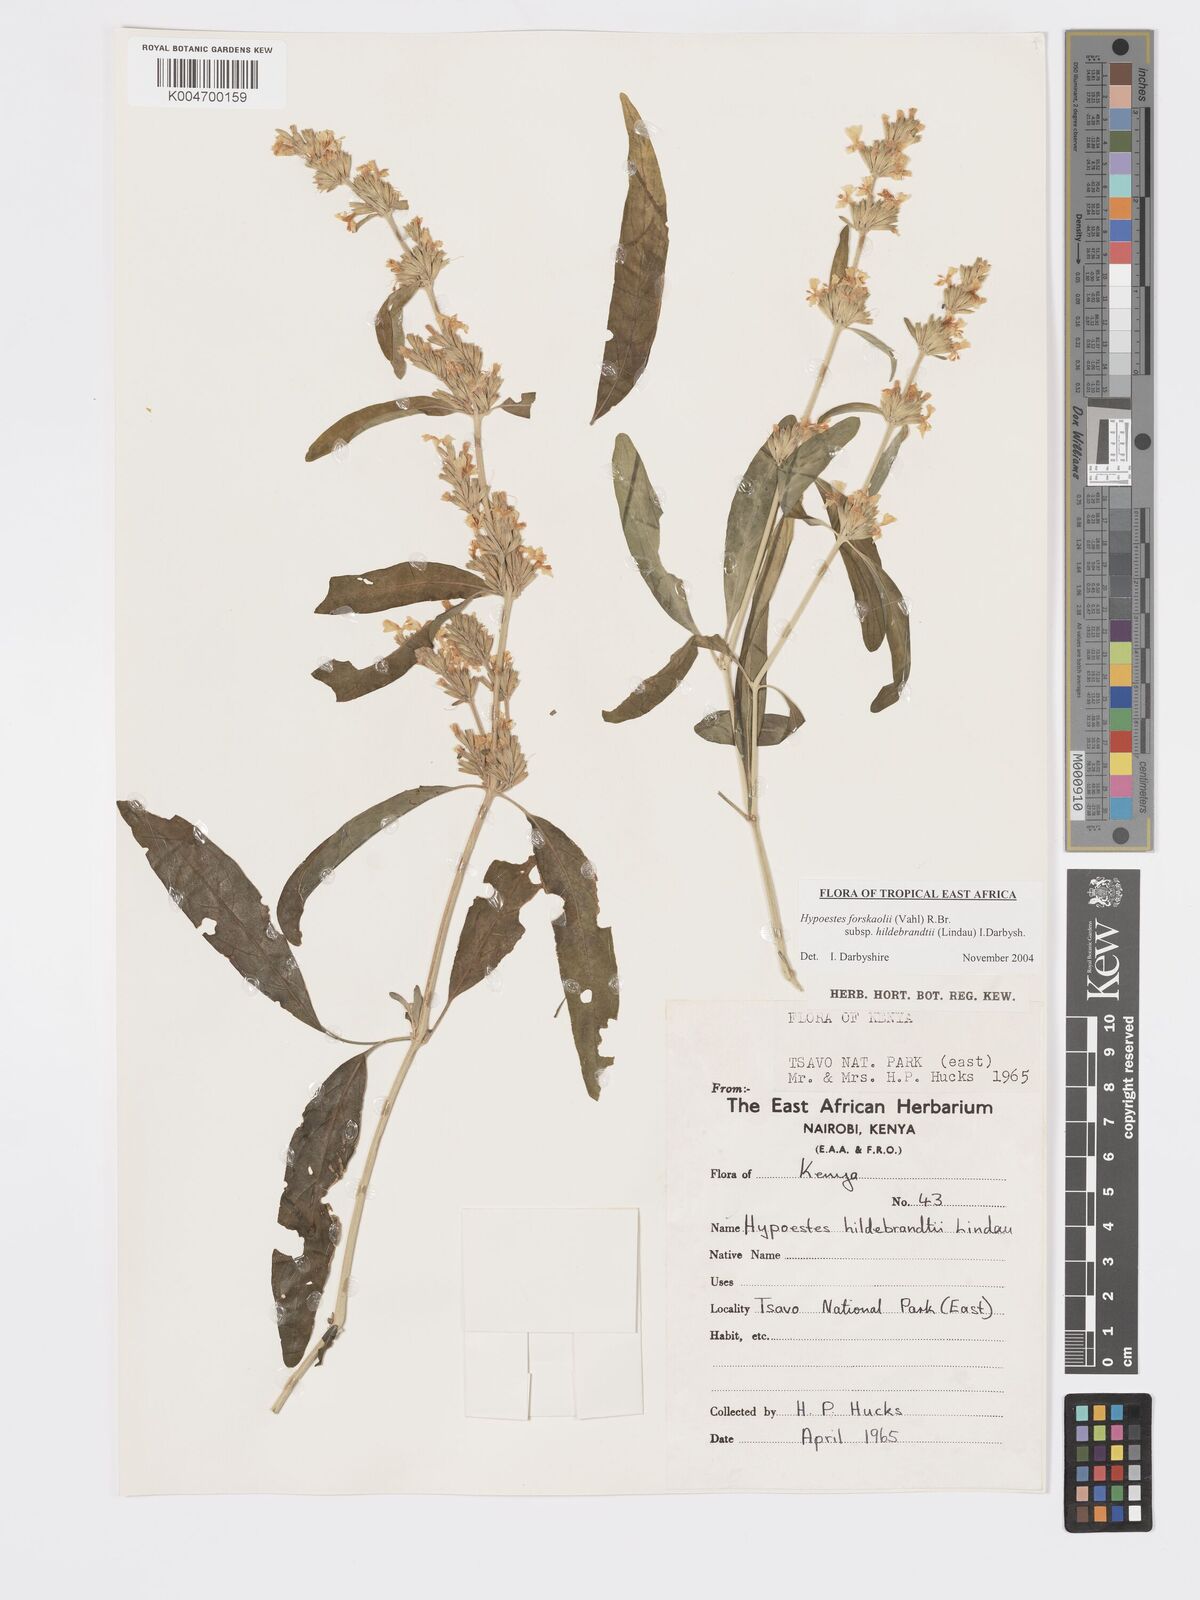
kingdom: Plantae
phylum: Tracheophyta
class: Magnoliopsida
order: Lamiales
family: Acanthaceae
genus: Hypoestes
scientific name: Hypoestes forskaolii
